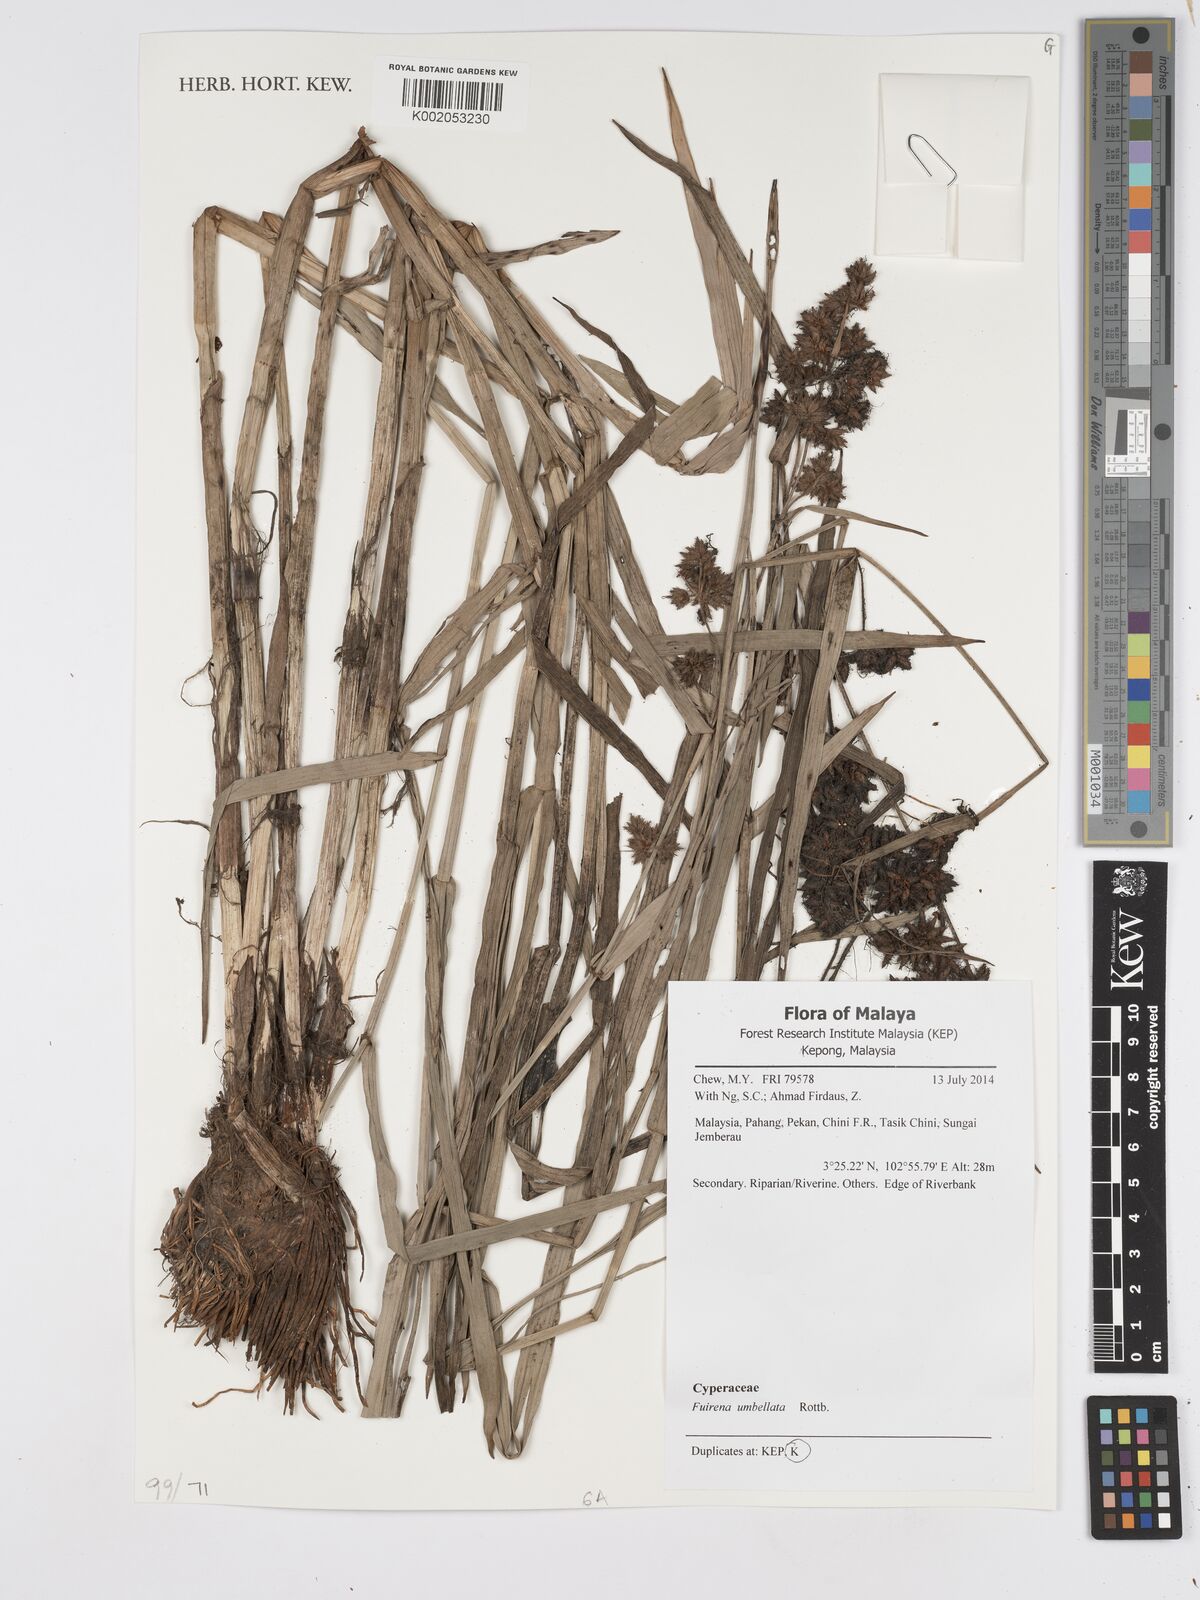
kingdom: Plantae
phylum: Tracheophyta
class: Liliopsida
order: Poales
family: Cyperaceae
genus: Fuirena
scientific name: Fuirena umbellata
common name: Yefen
